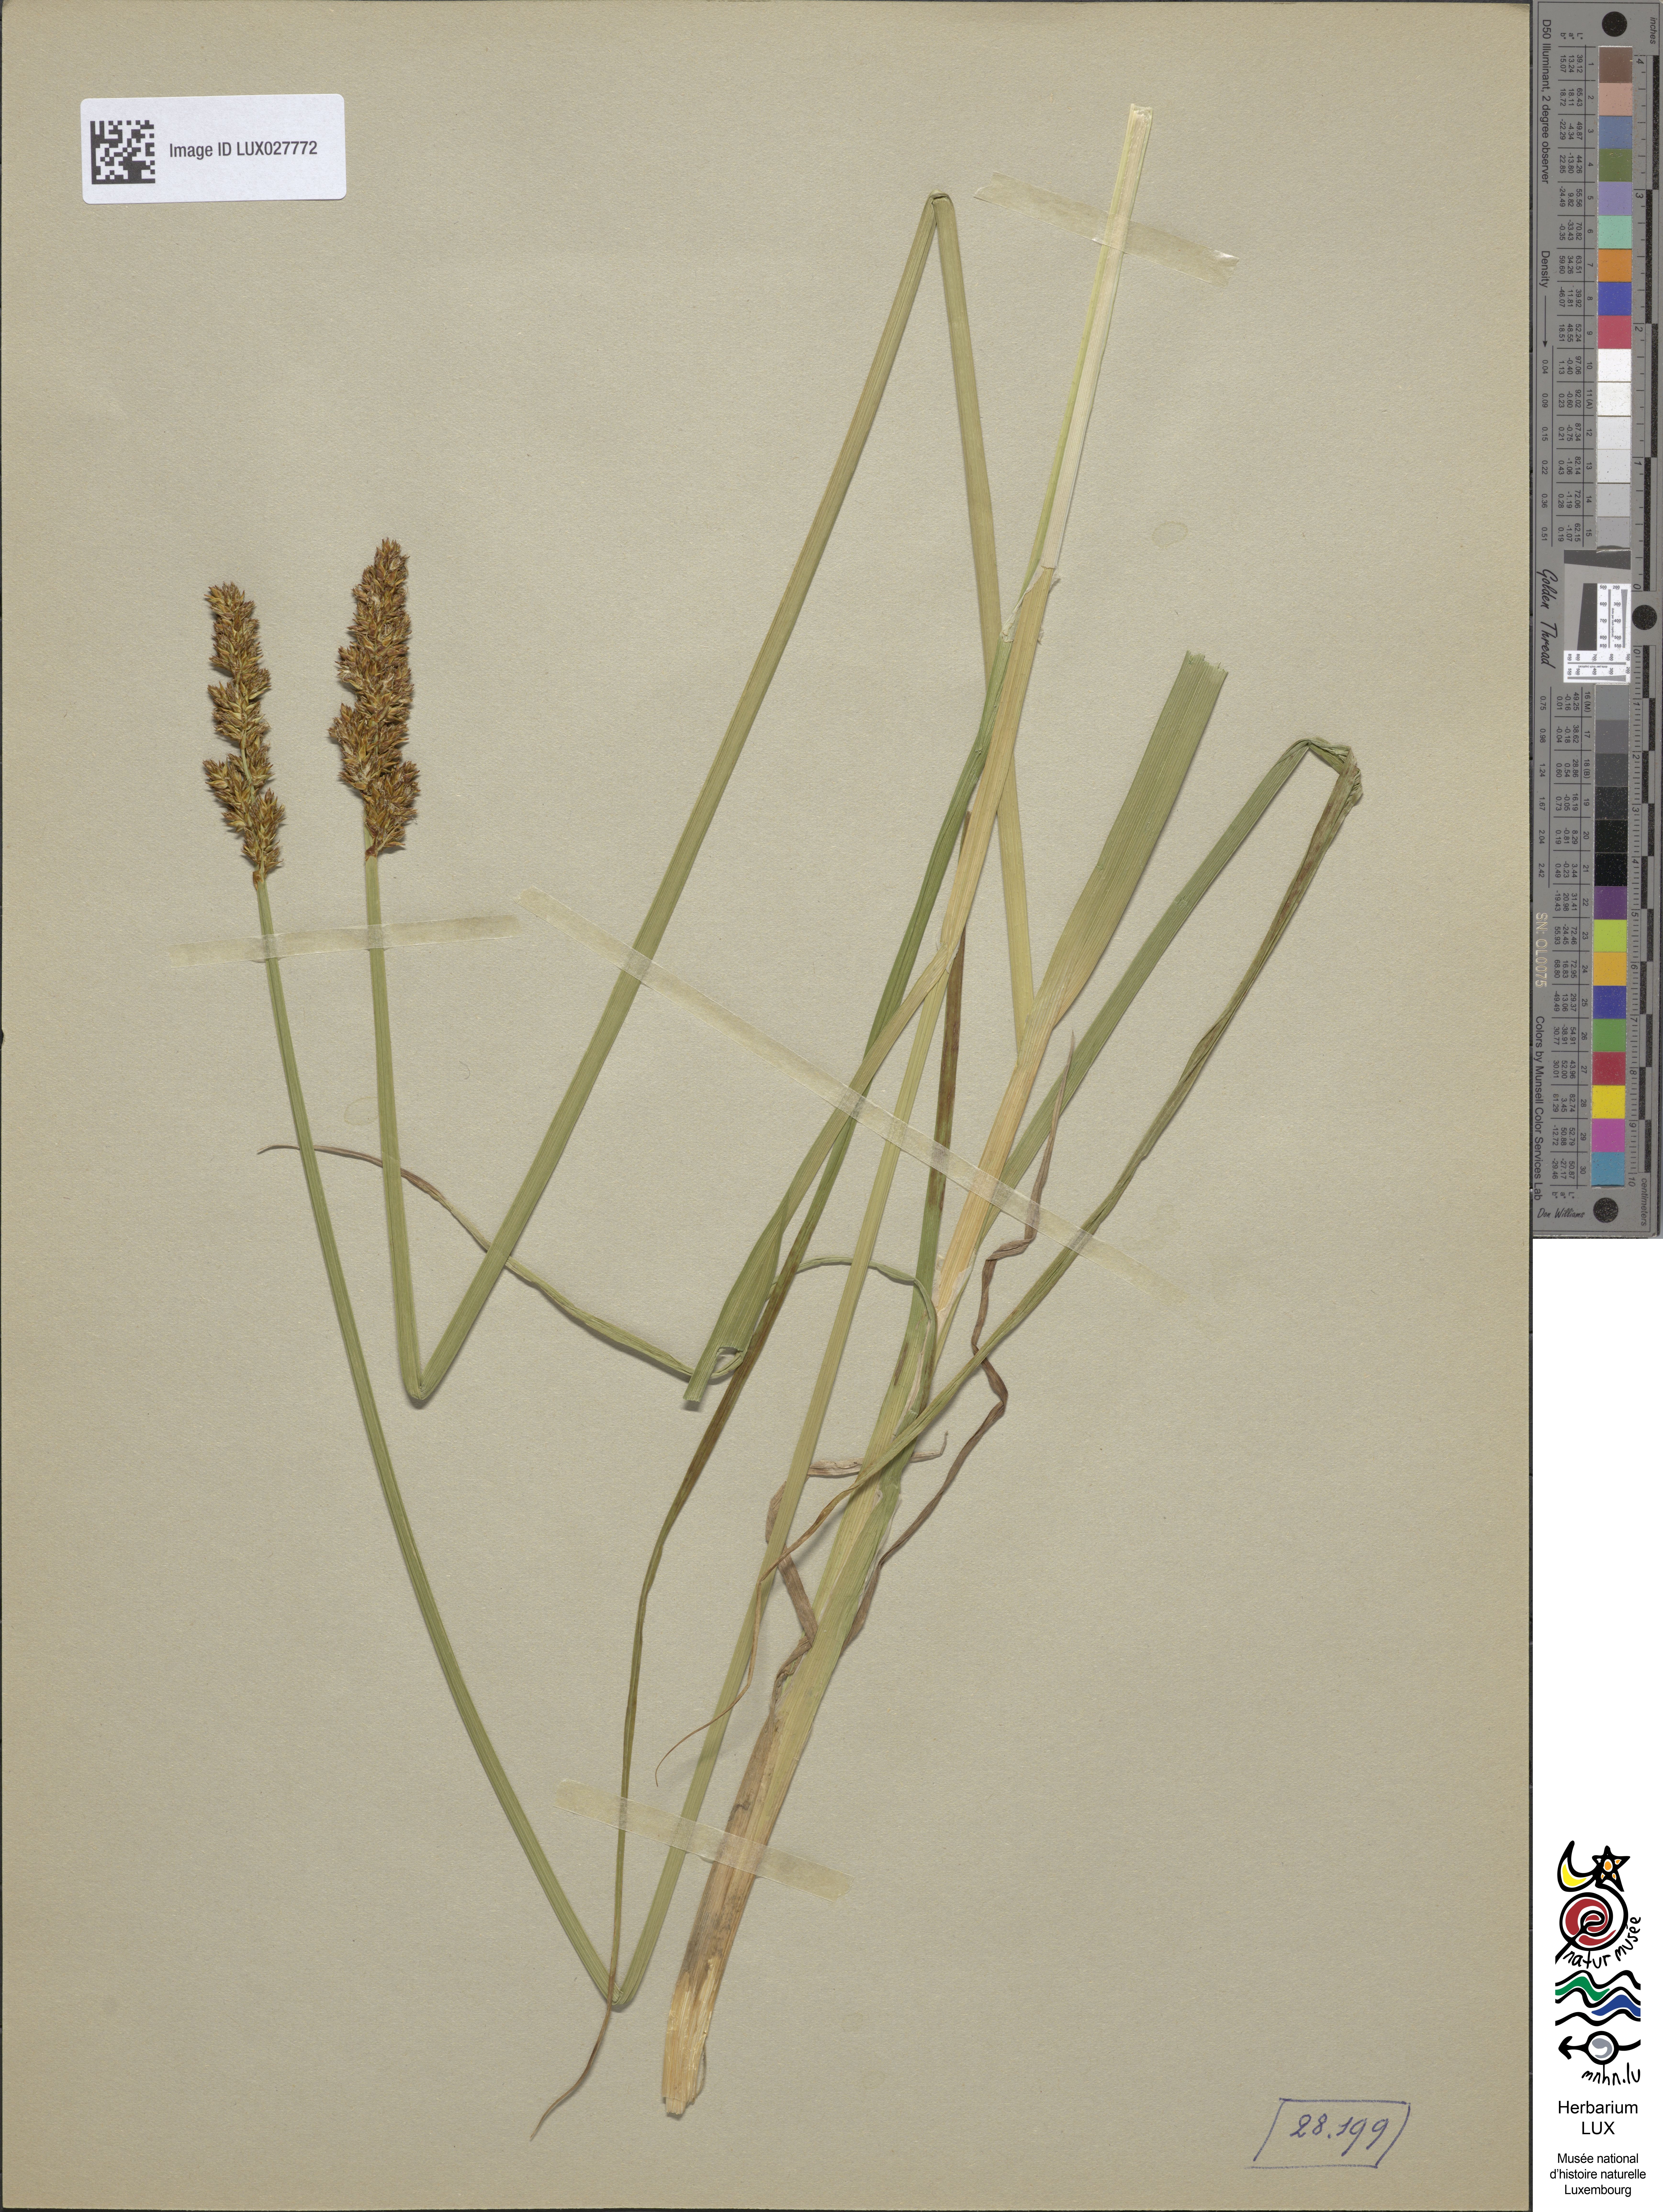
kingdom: Plantae
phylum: Tracheophyta
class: Liliopsida
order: Poales
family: Cyperaceae
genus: Carex
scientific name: Carex vulpina
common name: True fox-sedge
